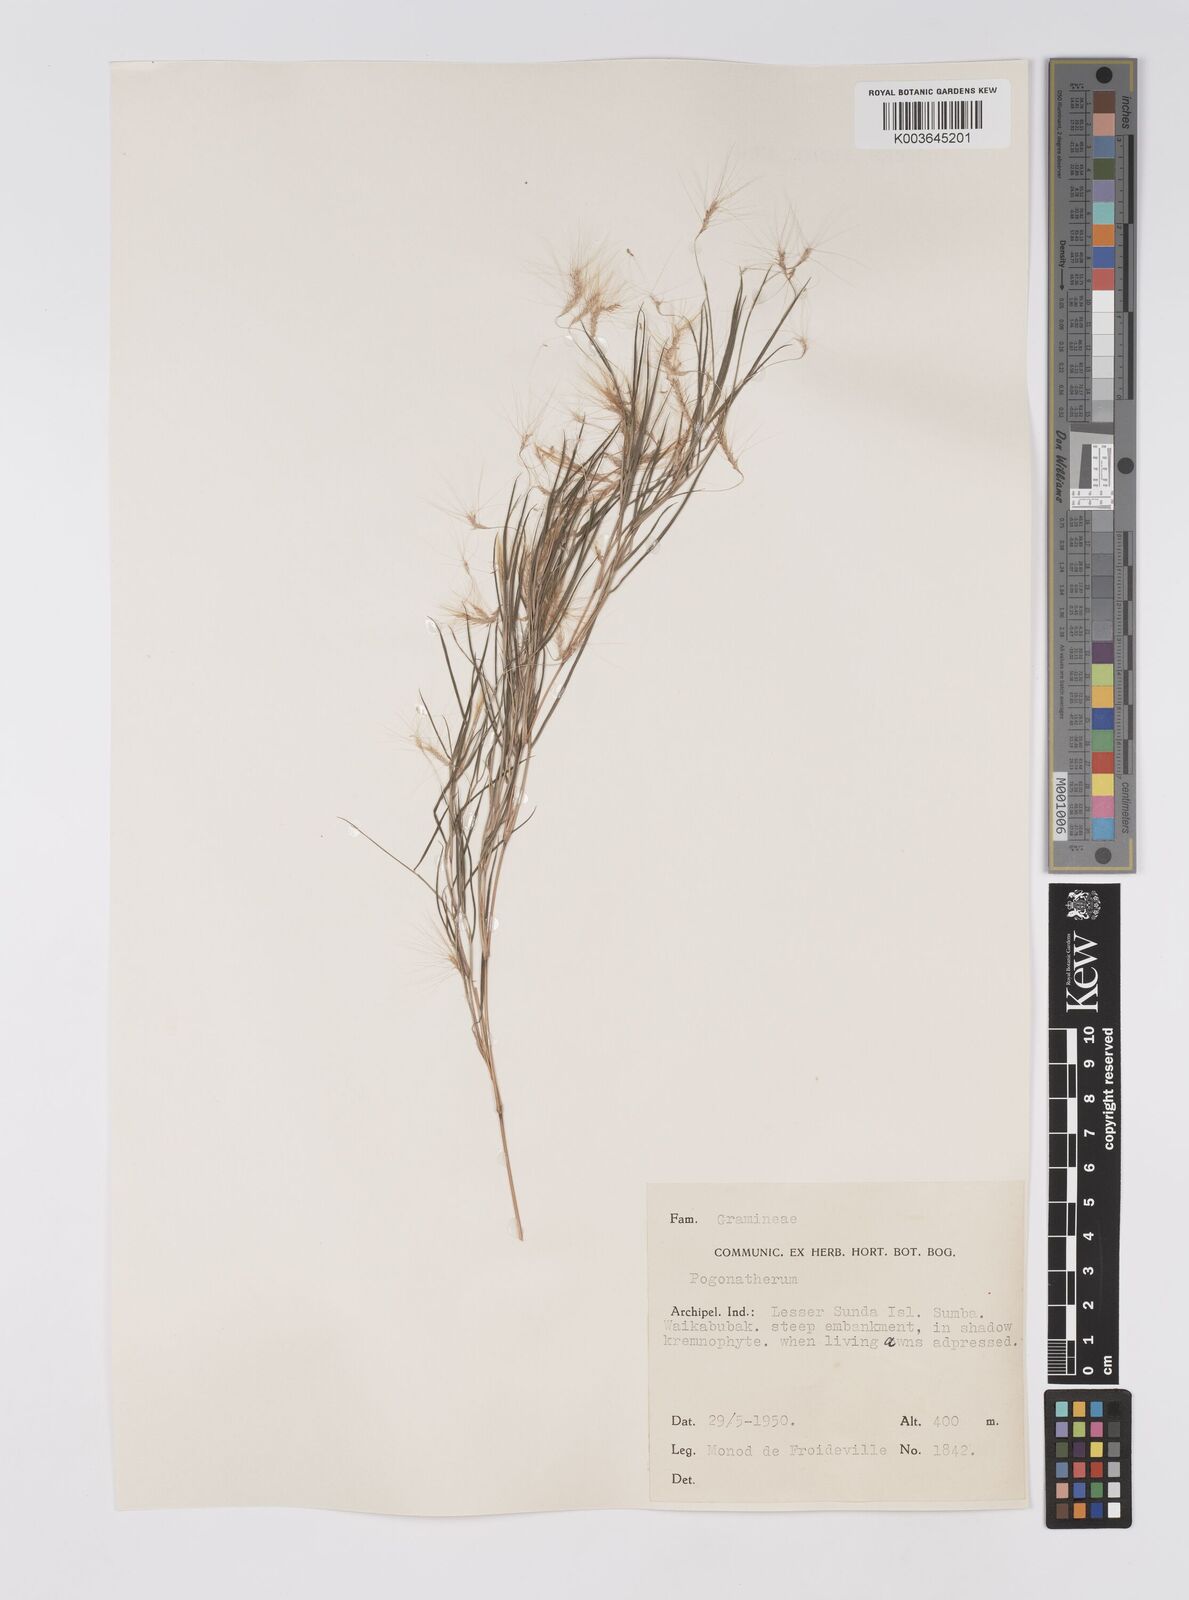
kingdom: Plantae
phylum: Tracheophyta
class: Liliopsida
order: Poales
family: Poaceae
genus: Pogonatherum
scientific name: Pogonatherum paniceum
